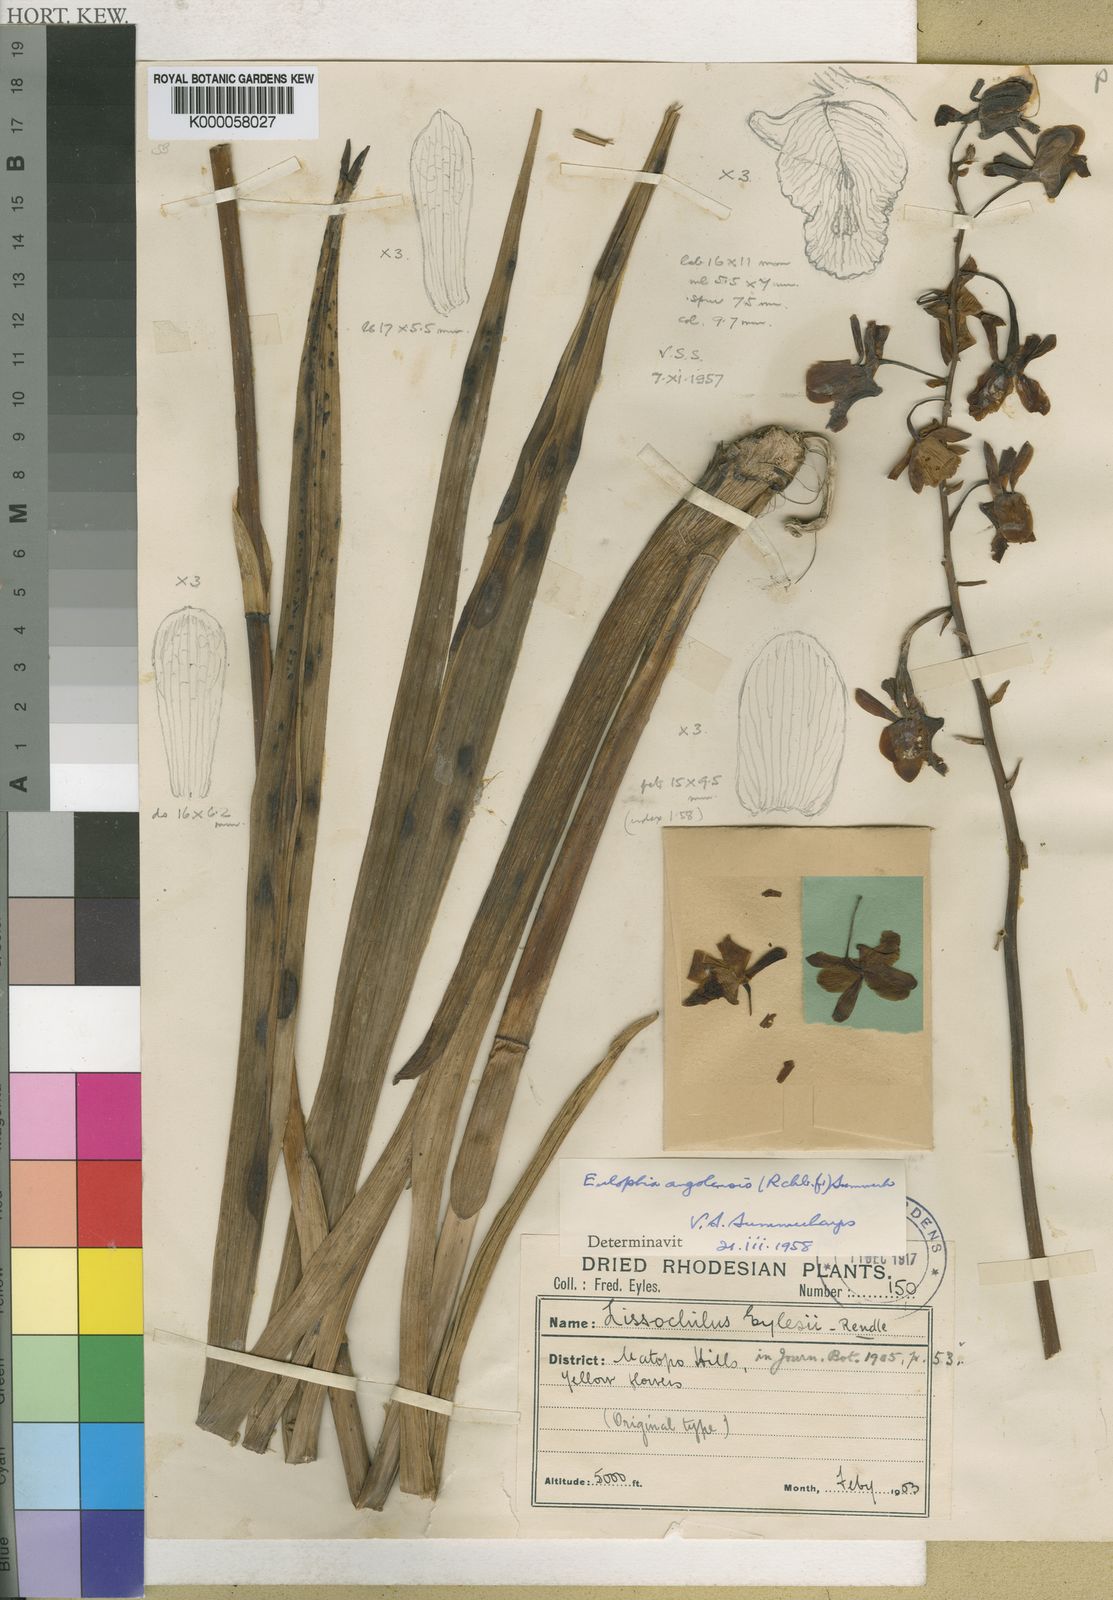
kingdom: Plantae
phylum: Tracheophyta
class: Liliopsida
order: Asparagales
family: Orchidaceae
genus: Eulophia
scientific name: Eulophia angolensis
